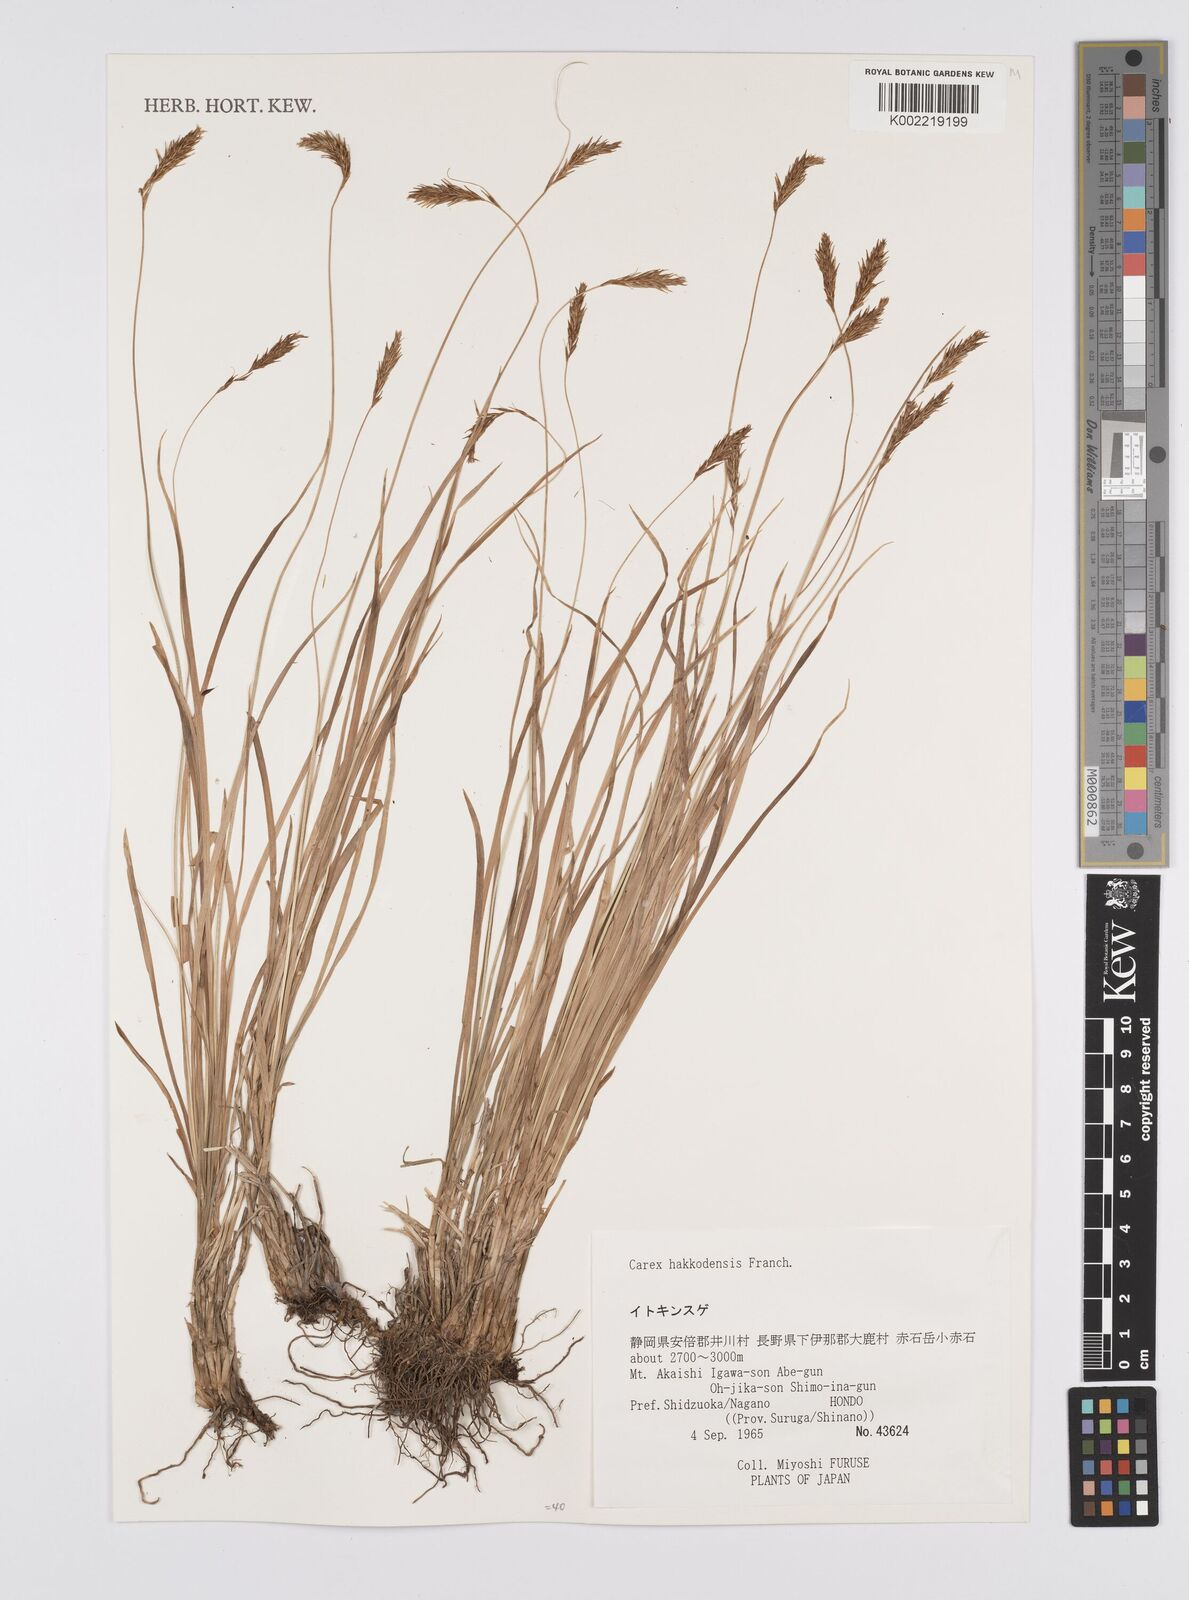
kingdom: Plantae
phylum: Tracheophyta
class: Liliopsida
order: Poales
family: Cyperaceae
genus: Carex
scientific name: Carex hakkodensis
